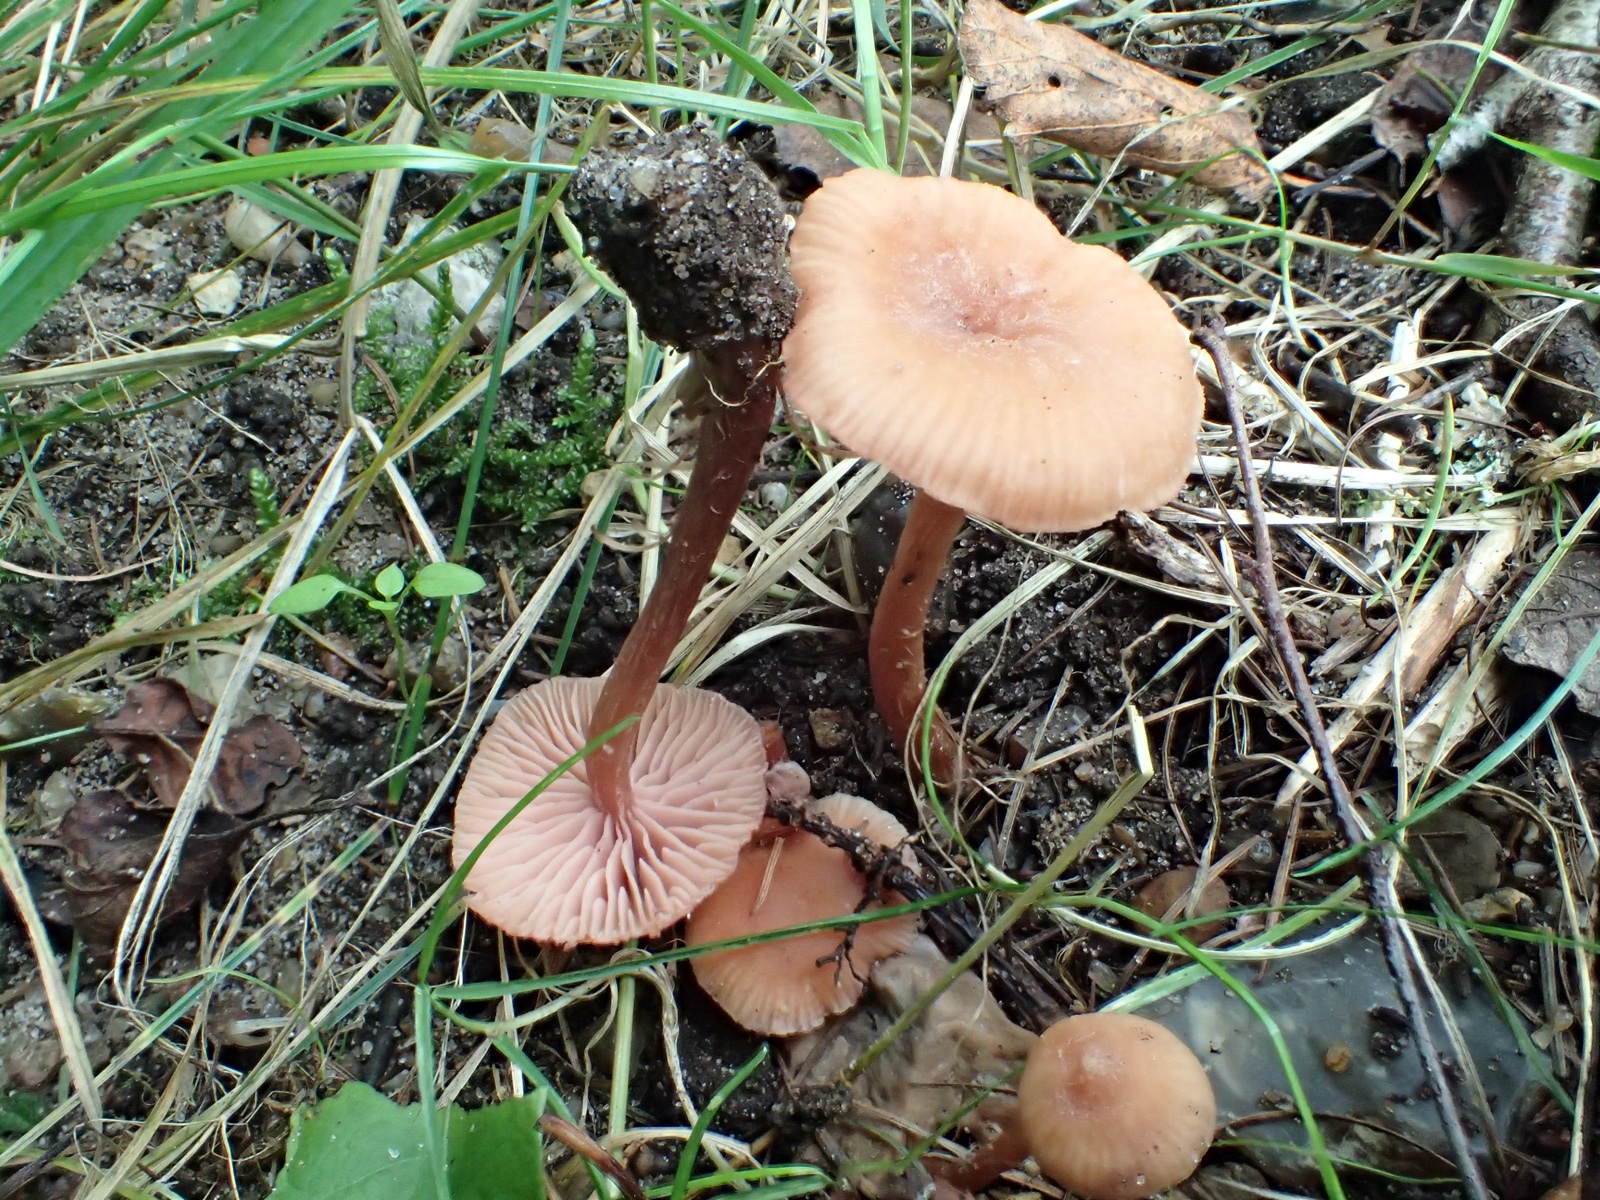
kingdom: Fungi
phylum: Basidiomycota
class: Agaricomycetes
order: Agaricales
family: Hydnangiaceae
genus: Laccaria
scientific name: Laccaria laccata
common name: rød ametysthat
